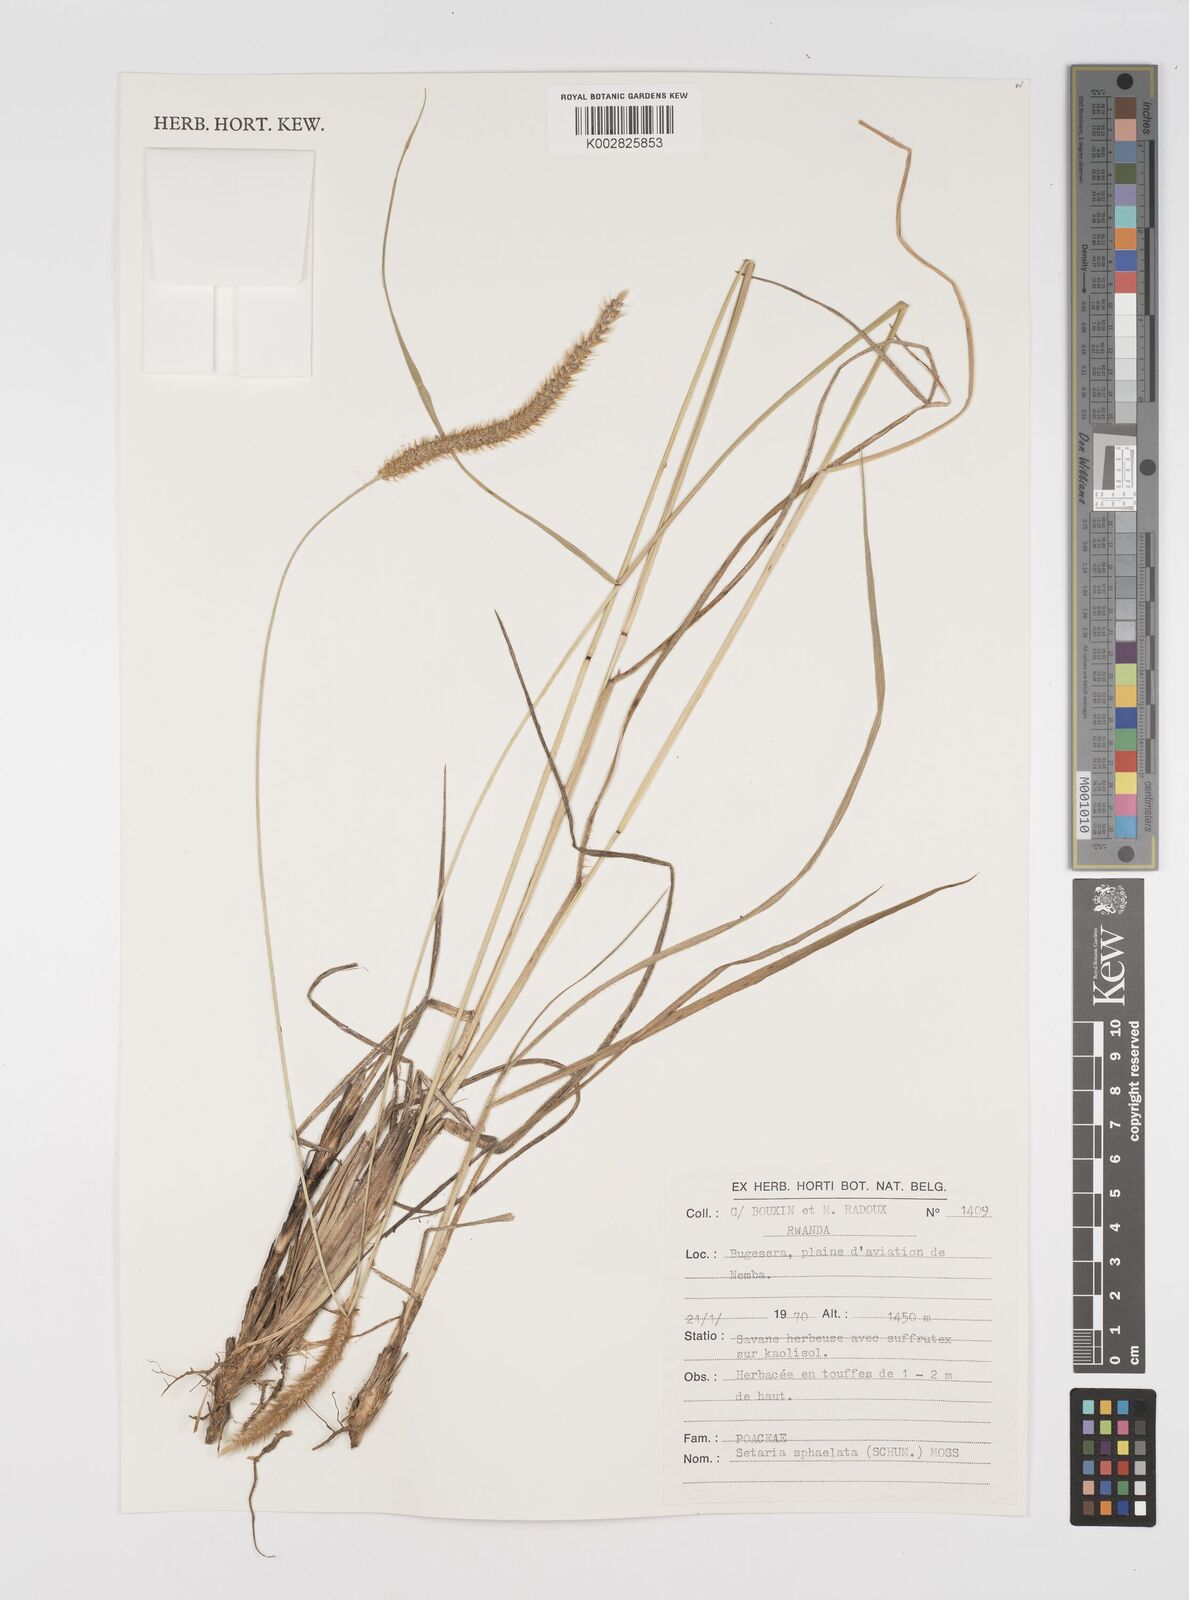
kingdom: Plantae
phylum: Tracheophyta
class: Liliopsida
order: Poales
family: Poaceae
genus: Setaria
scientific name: Setaria sphacelata
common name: African bristlegrass
